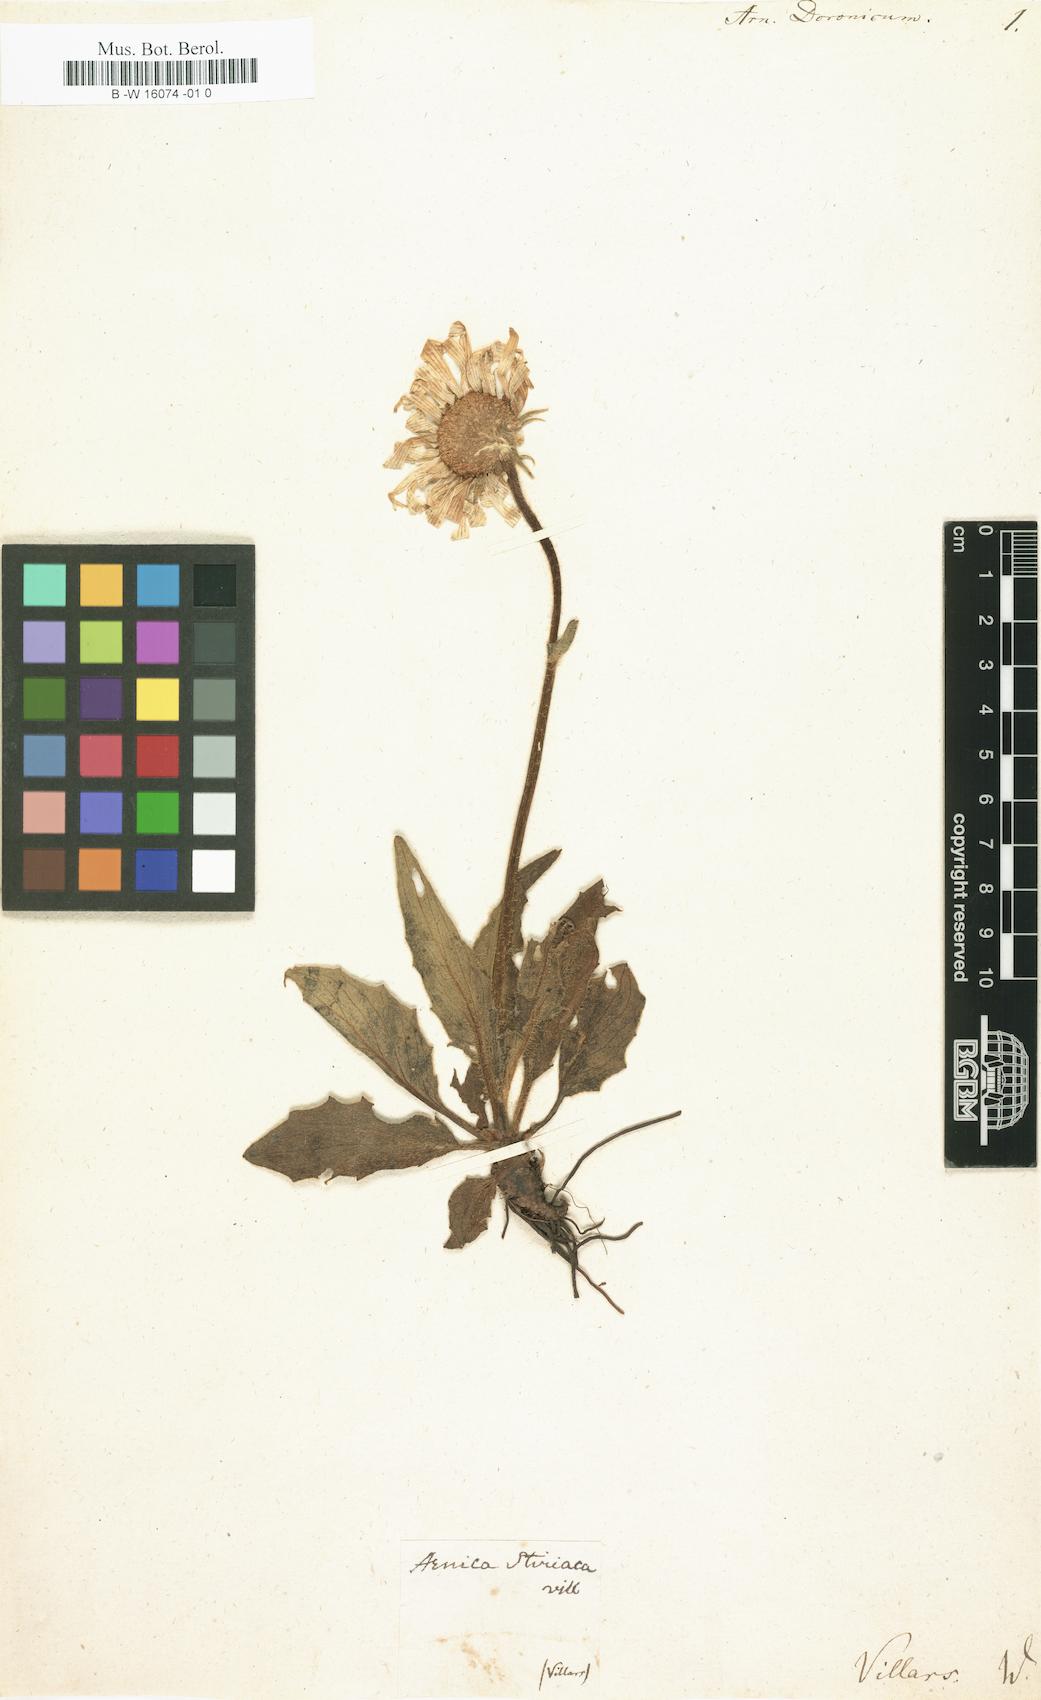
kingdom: Plantae
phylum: Tracheophyta
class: Magnoliopsida
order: Asterales
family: Asteraceae
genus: Doronicum
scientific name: Doronicum clusii
